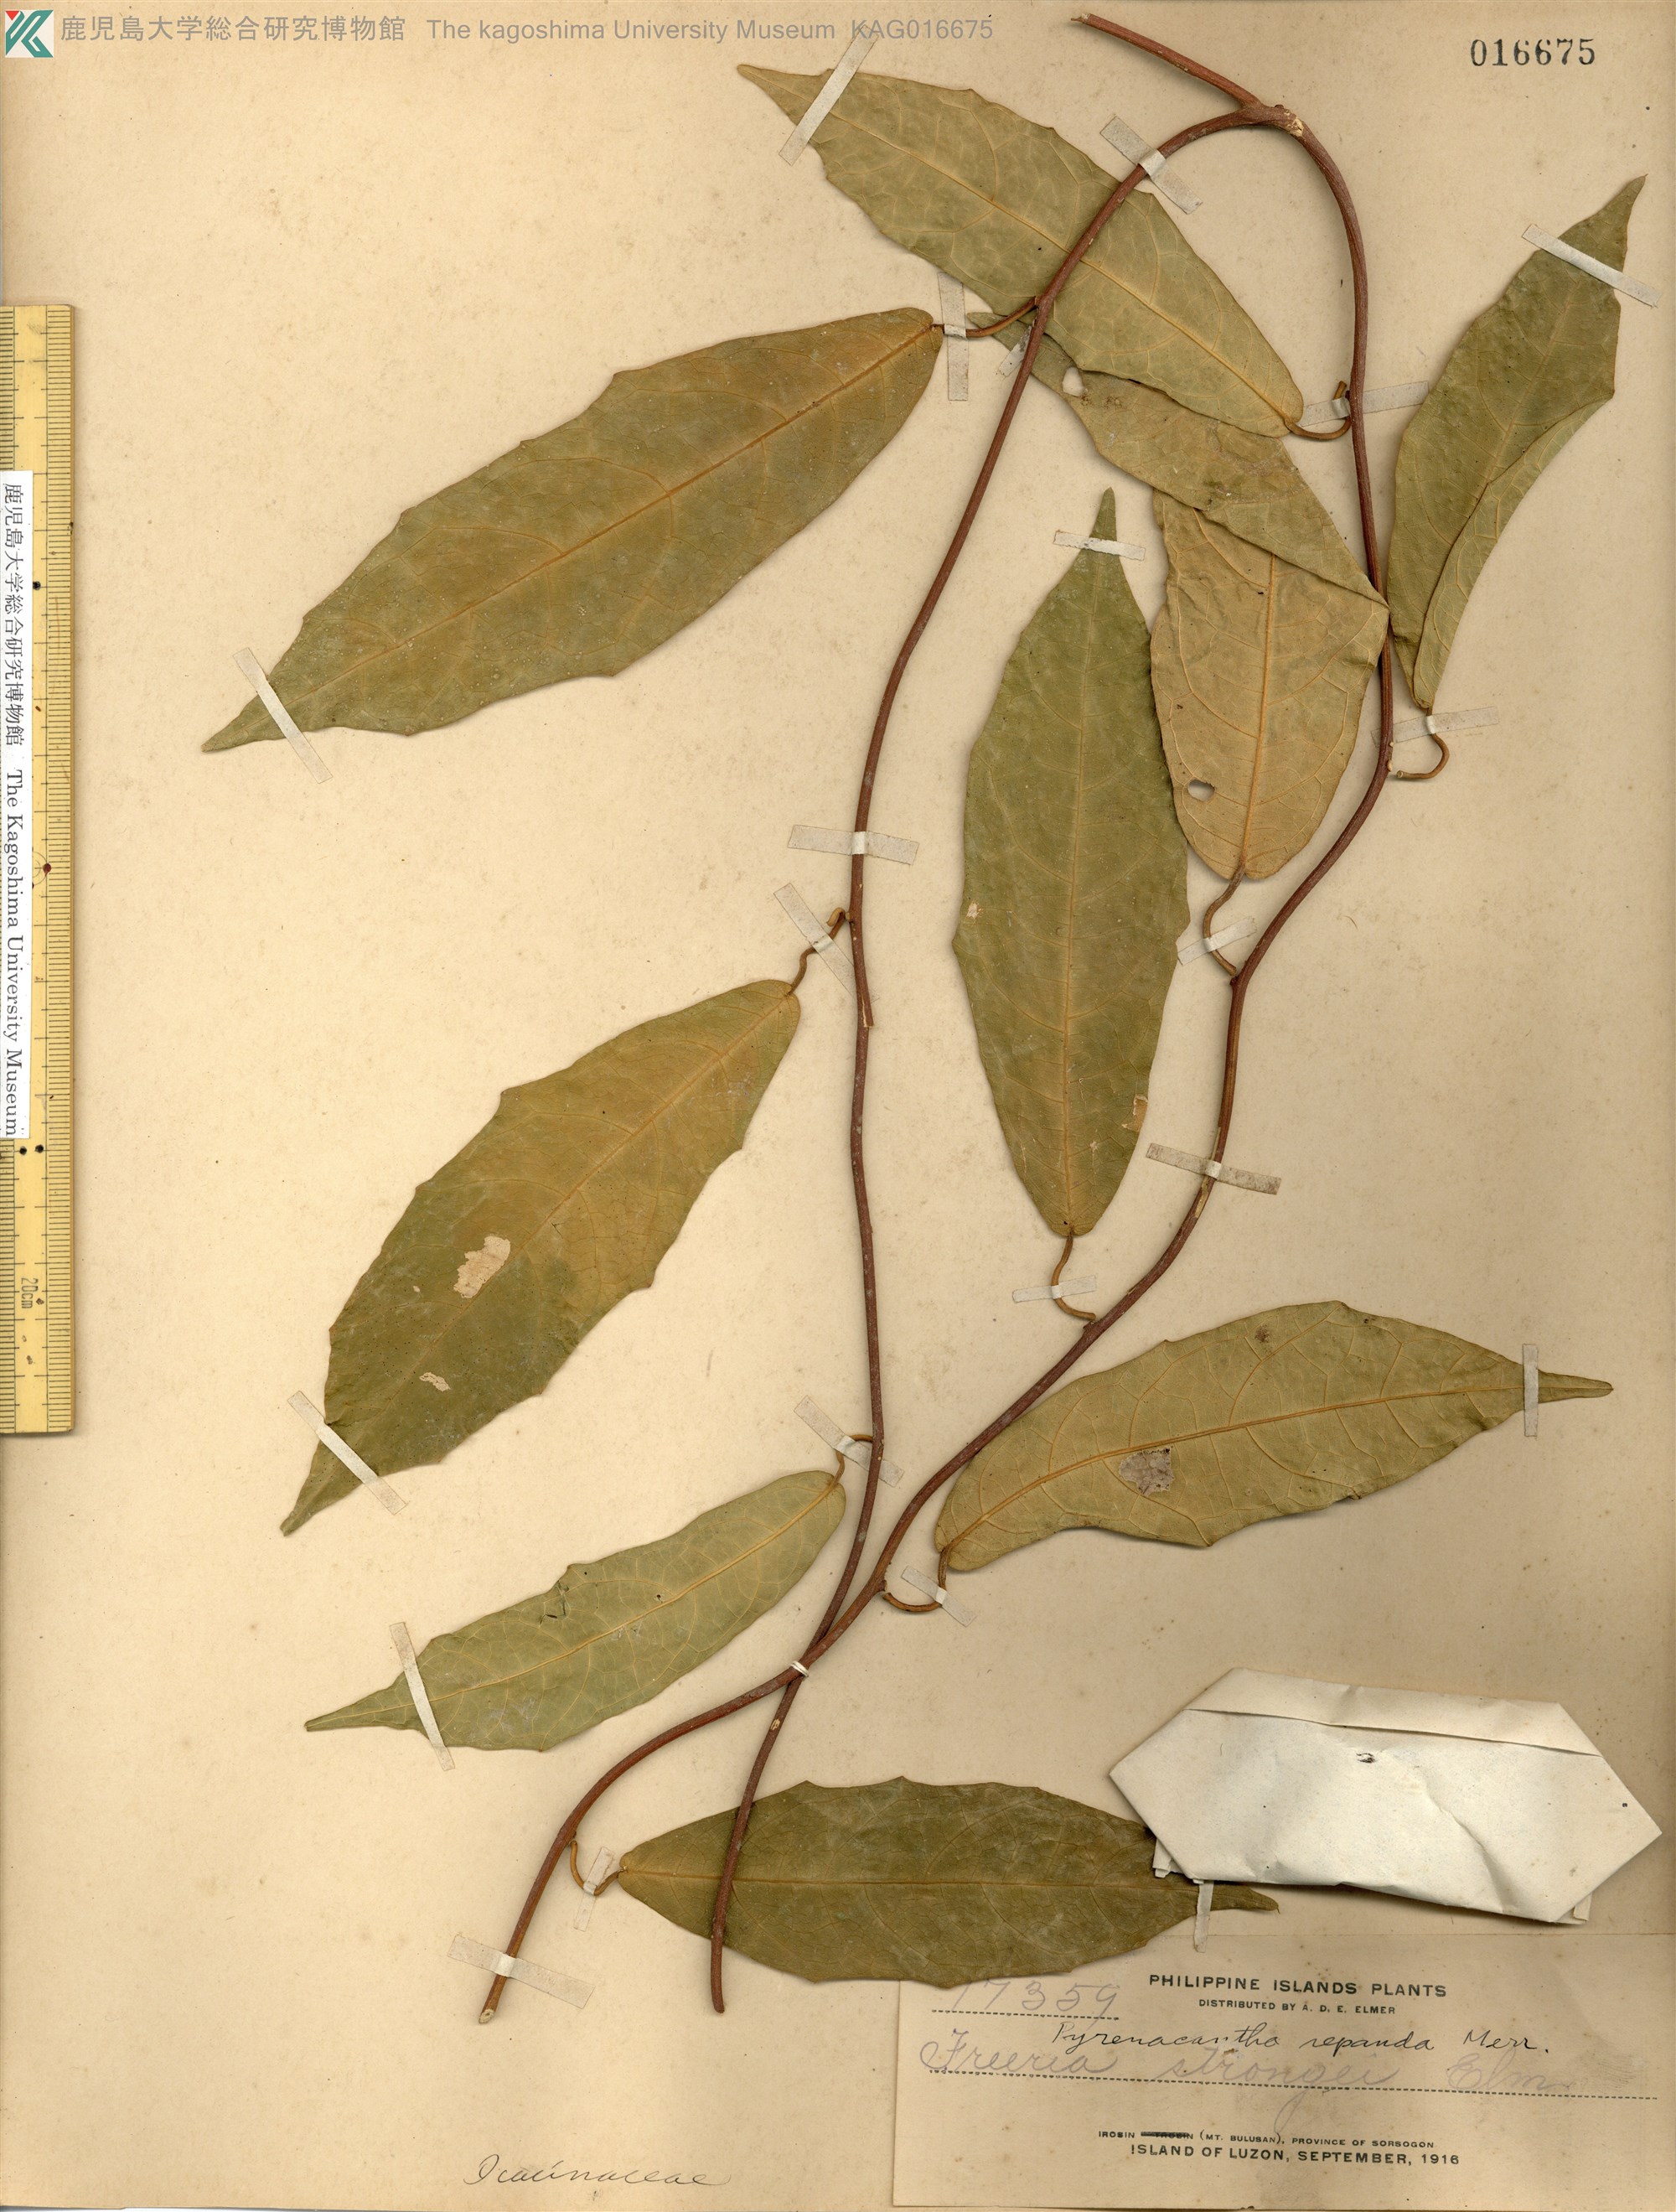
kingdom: Plantae
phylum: Tracheophyta
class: Magnoliopsida
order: Icacinales
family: Icacinaceae
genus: Pyrenacantha
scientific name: Pyrenacantha repanda
